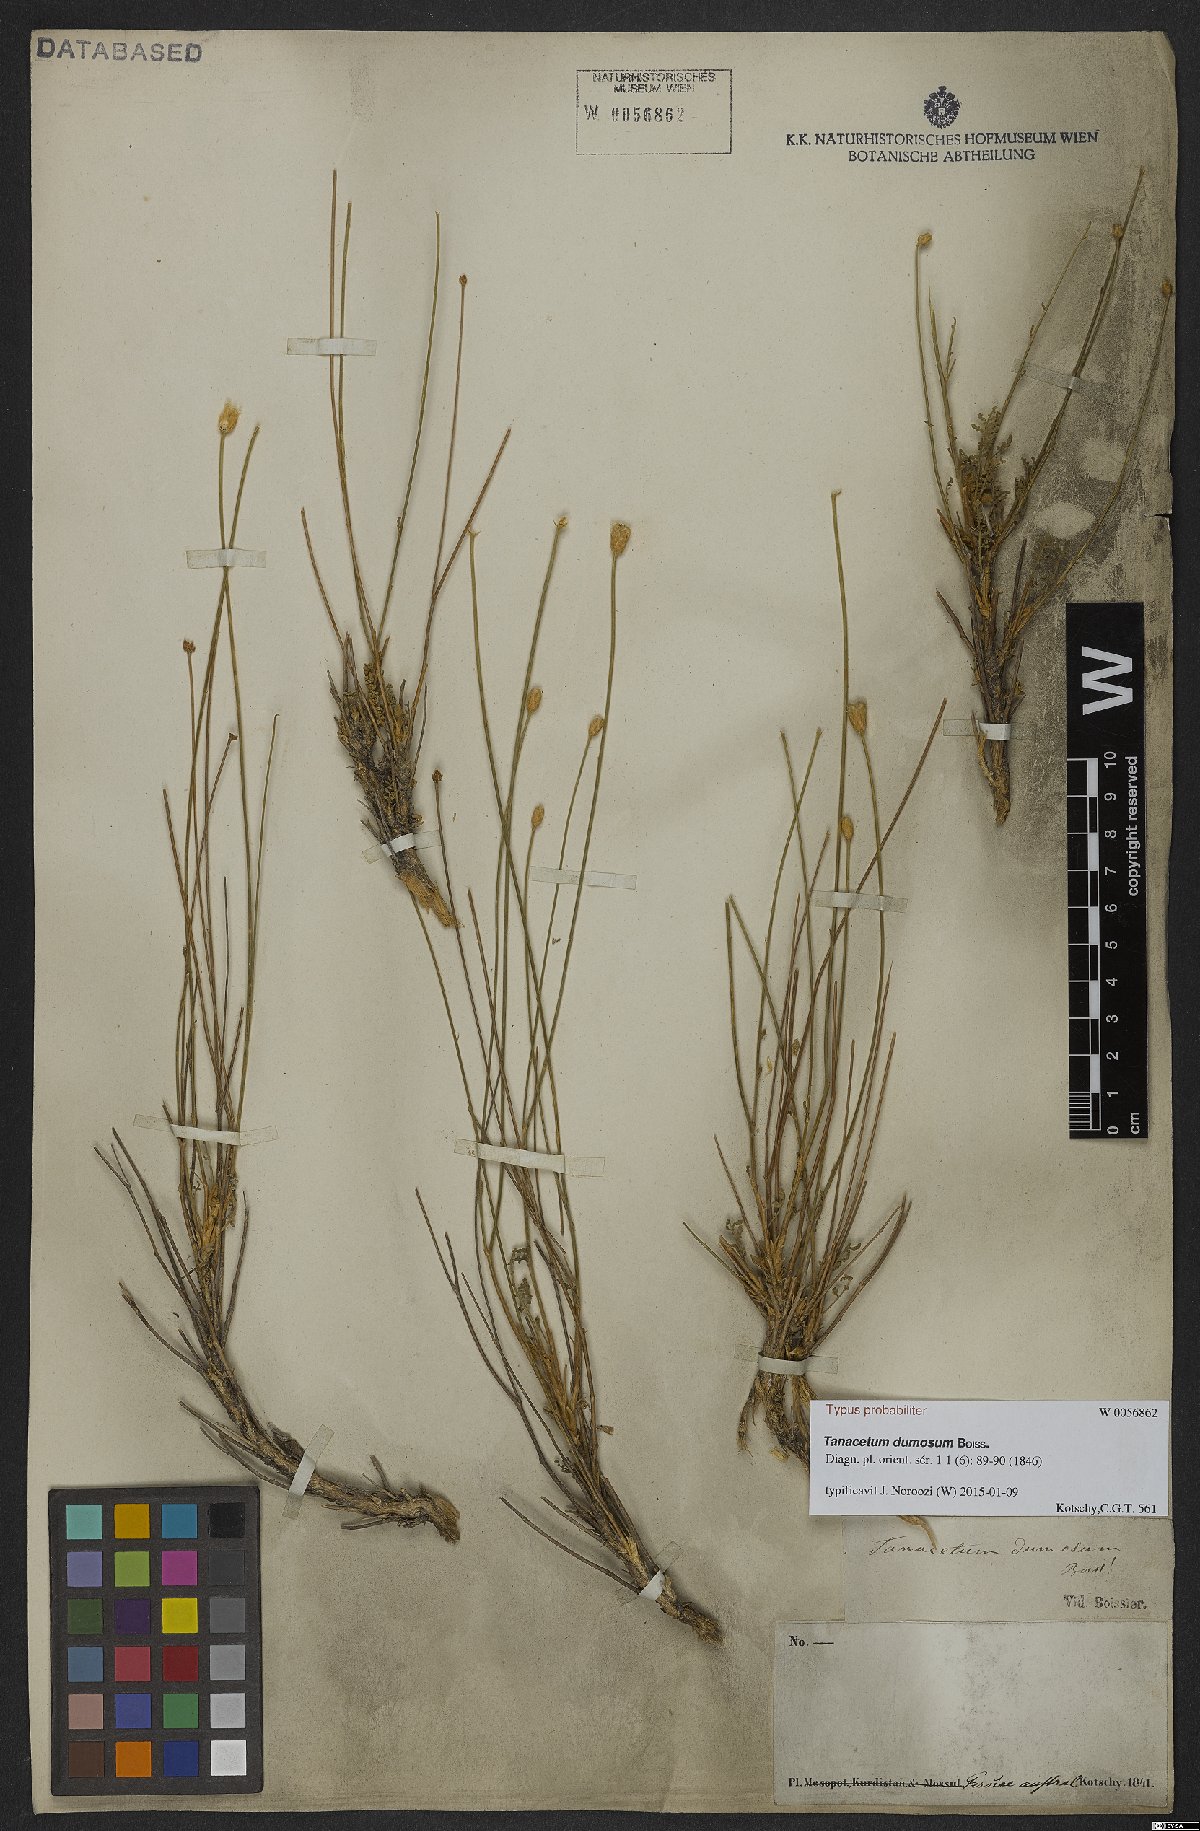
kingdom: Plantae
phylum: Tracheophyta
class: Magnoliopsida
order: Asterales
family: Asteraceae
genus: Tanacetum
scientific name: Tanacetum dumosum
